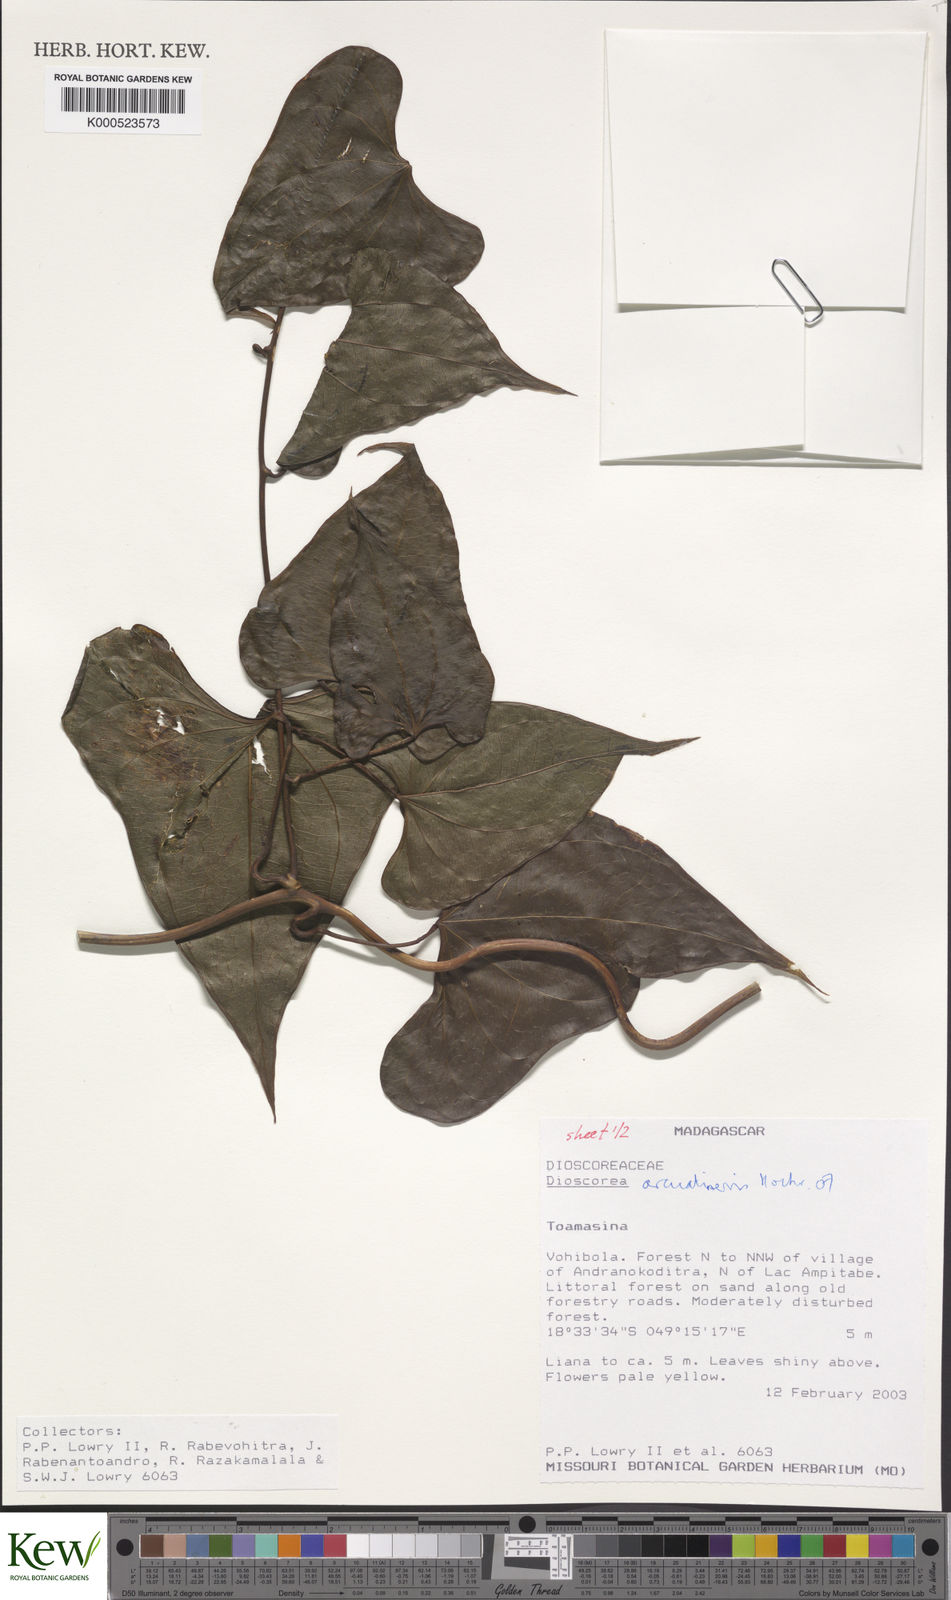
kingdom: Plantae
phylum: Tracheophyta
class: Liliopsida
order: Dioscoreales
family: Dioscoreaceae
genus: Dioscorea
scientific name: Dioscorea arcuatinervis
